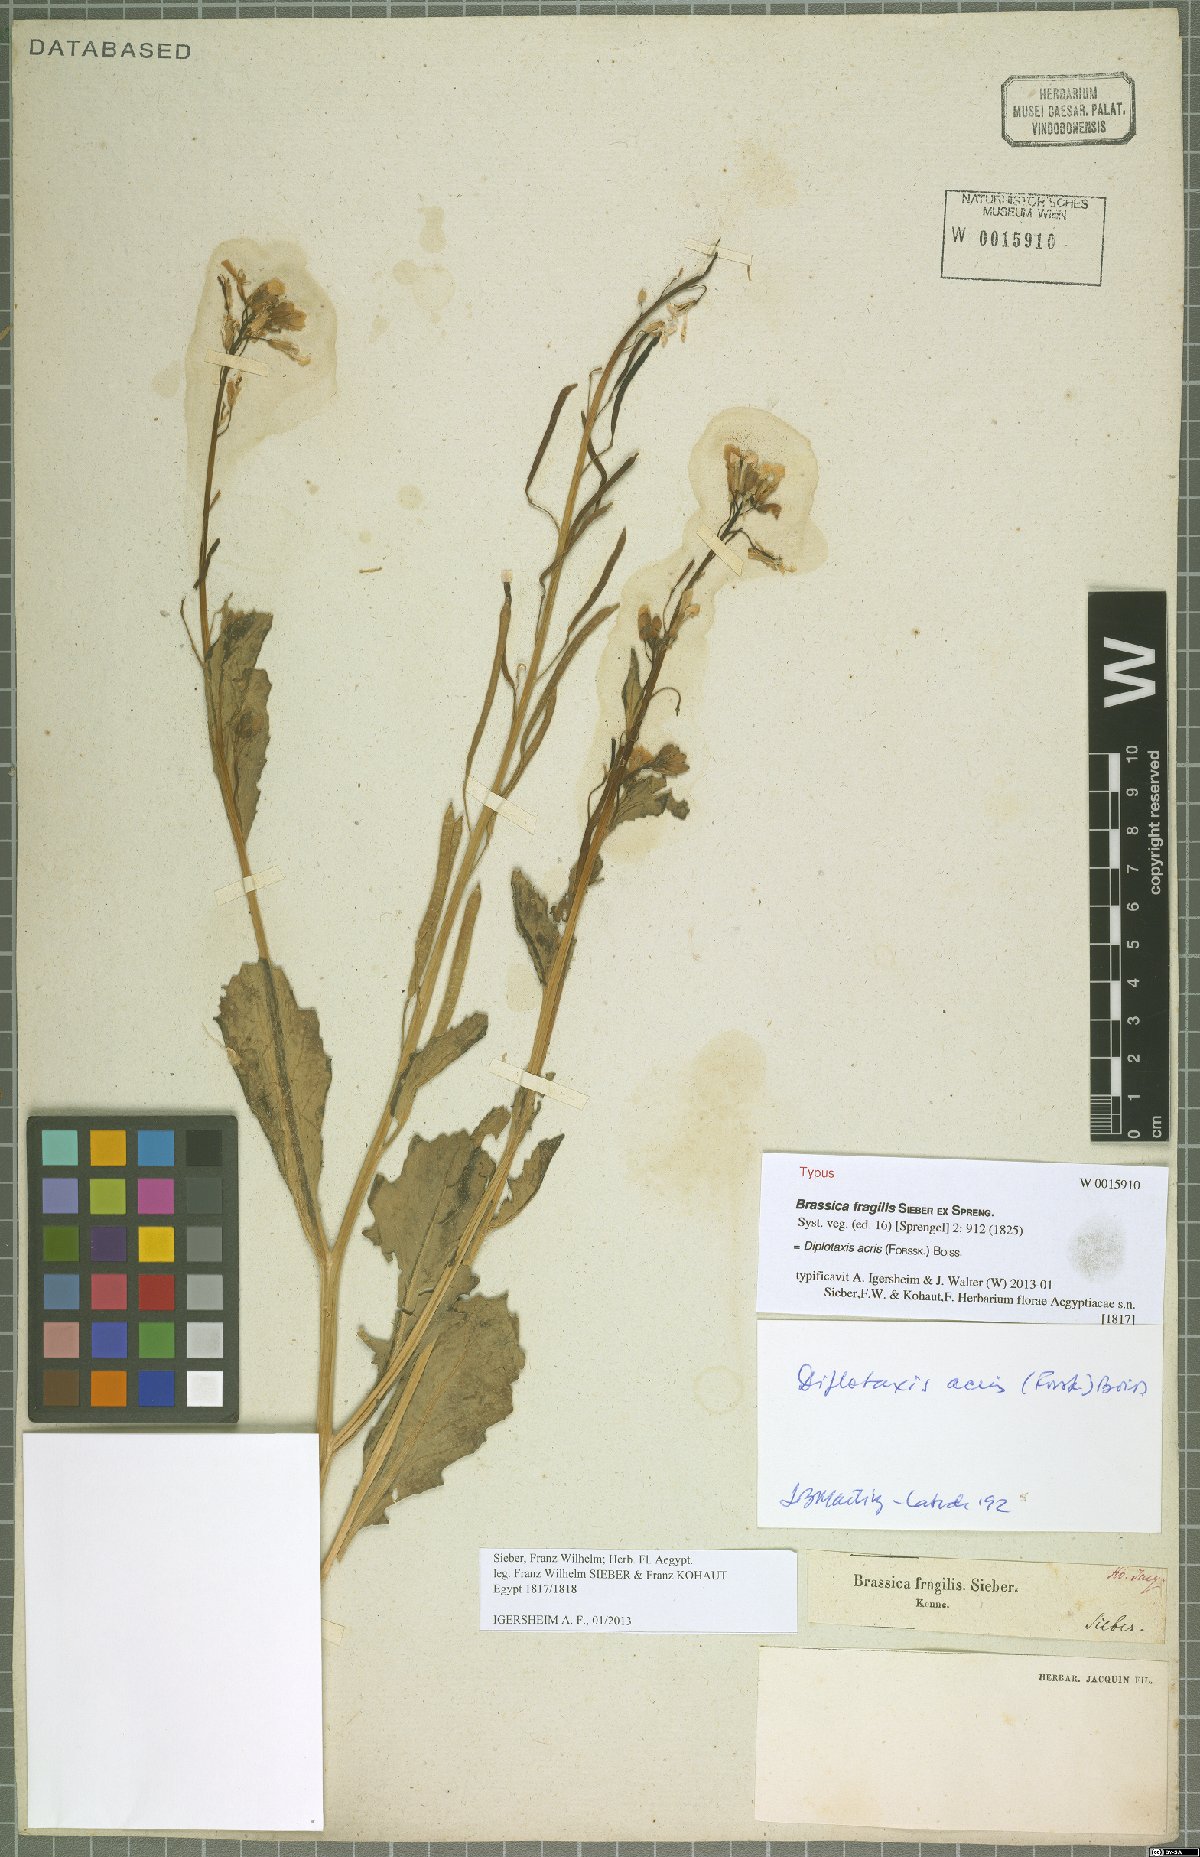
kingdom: Plantae
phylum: Tracheophyta
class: Magnoliopsida
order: Brassicales
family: Brassicaceae
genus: Diplotaxis
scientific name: Diplotaxis acris
